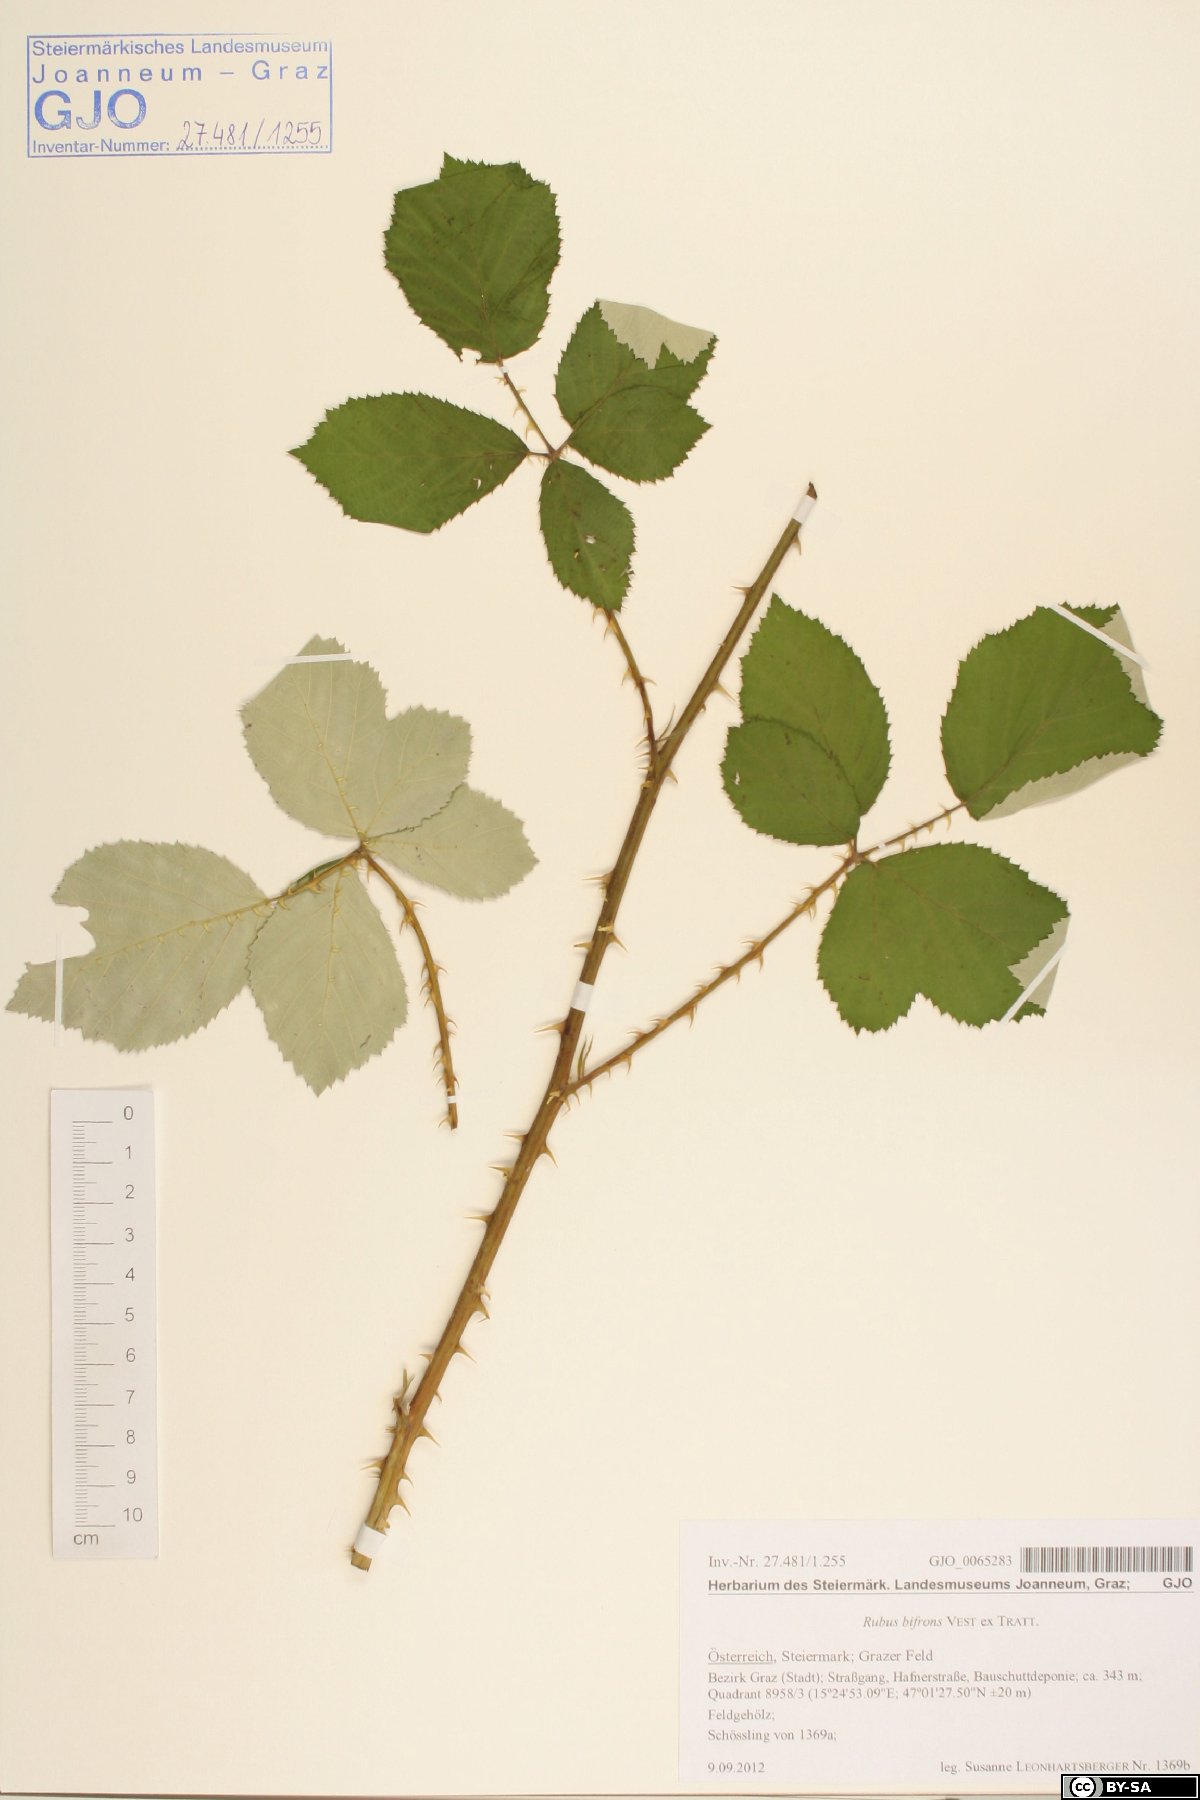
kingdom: Plantae
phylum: Tracheophyta
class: Magnoliopsida
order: Rosales
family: Rosaceae
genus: Rubus
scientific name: Rubus bifrons
